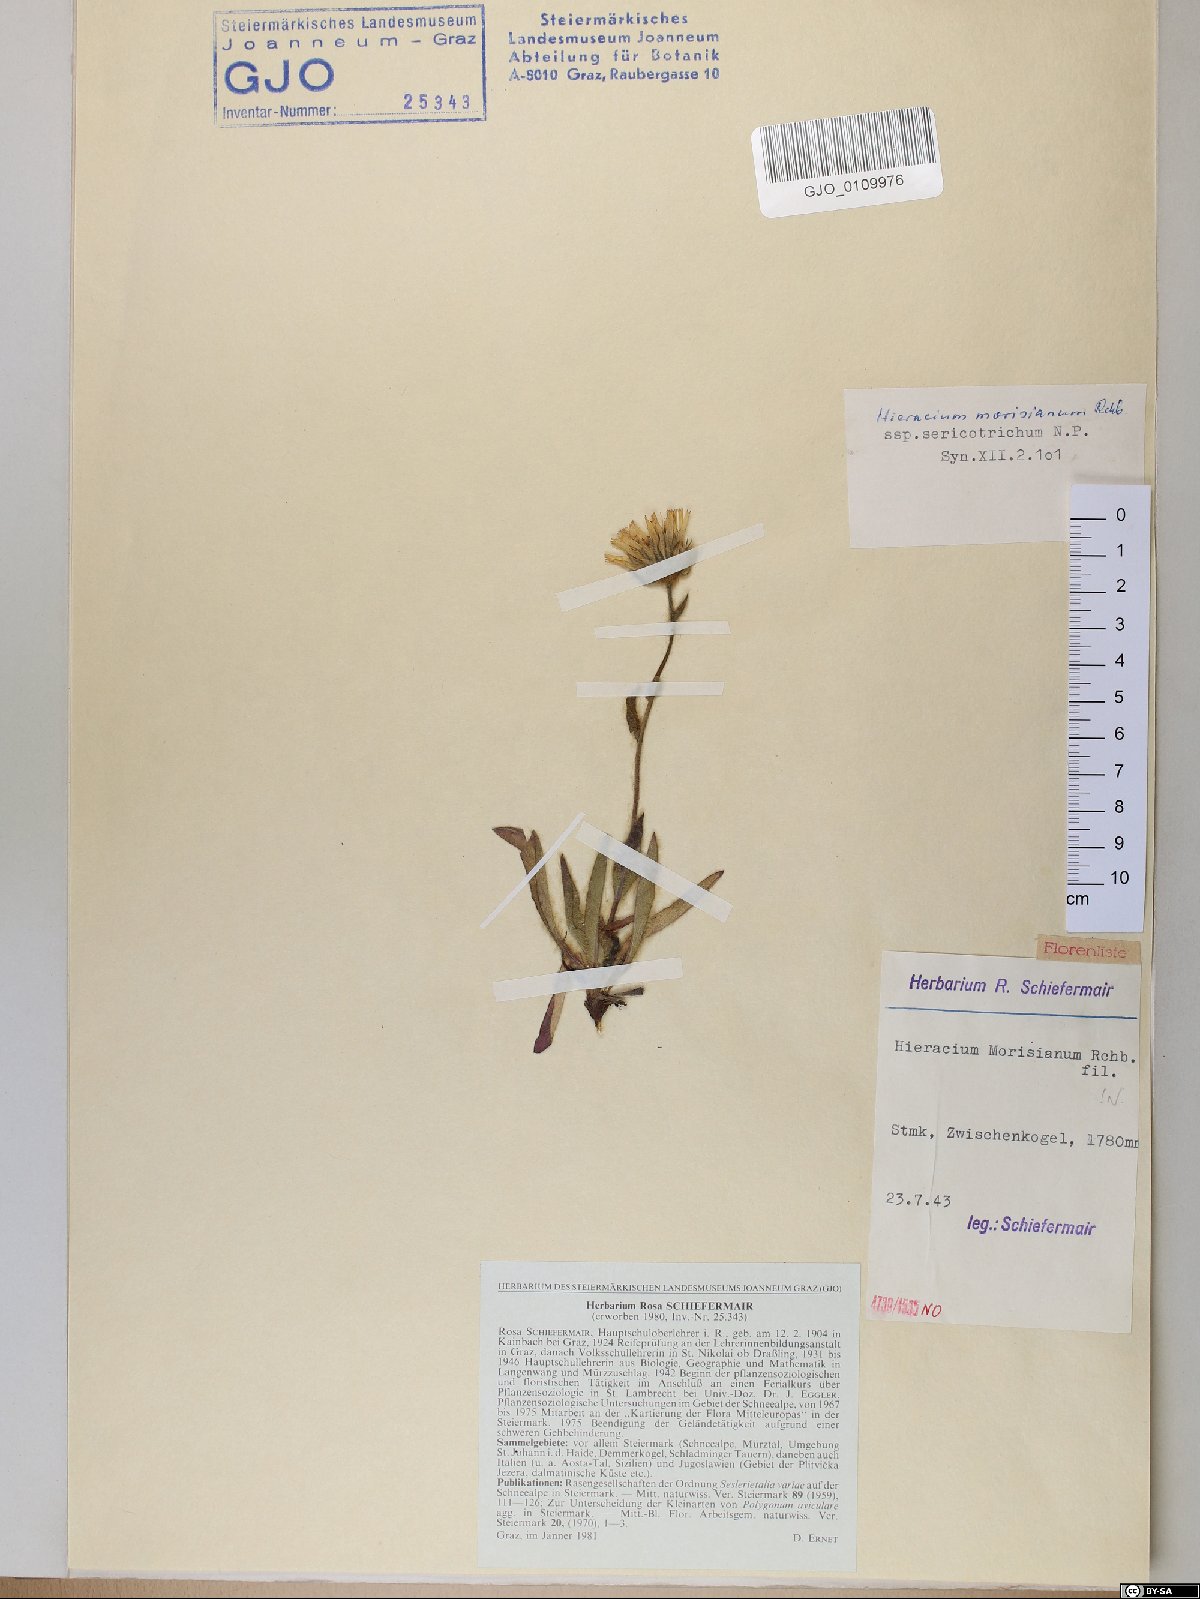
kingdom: Plantae
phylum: Tracheophyta
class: Magnoliopsida
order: Asterales
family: Asteraceae
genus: Hieracium
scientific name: Hieracium pilosum
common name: Fimbriate-pitted hawkweed
